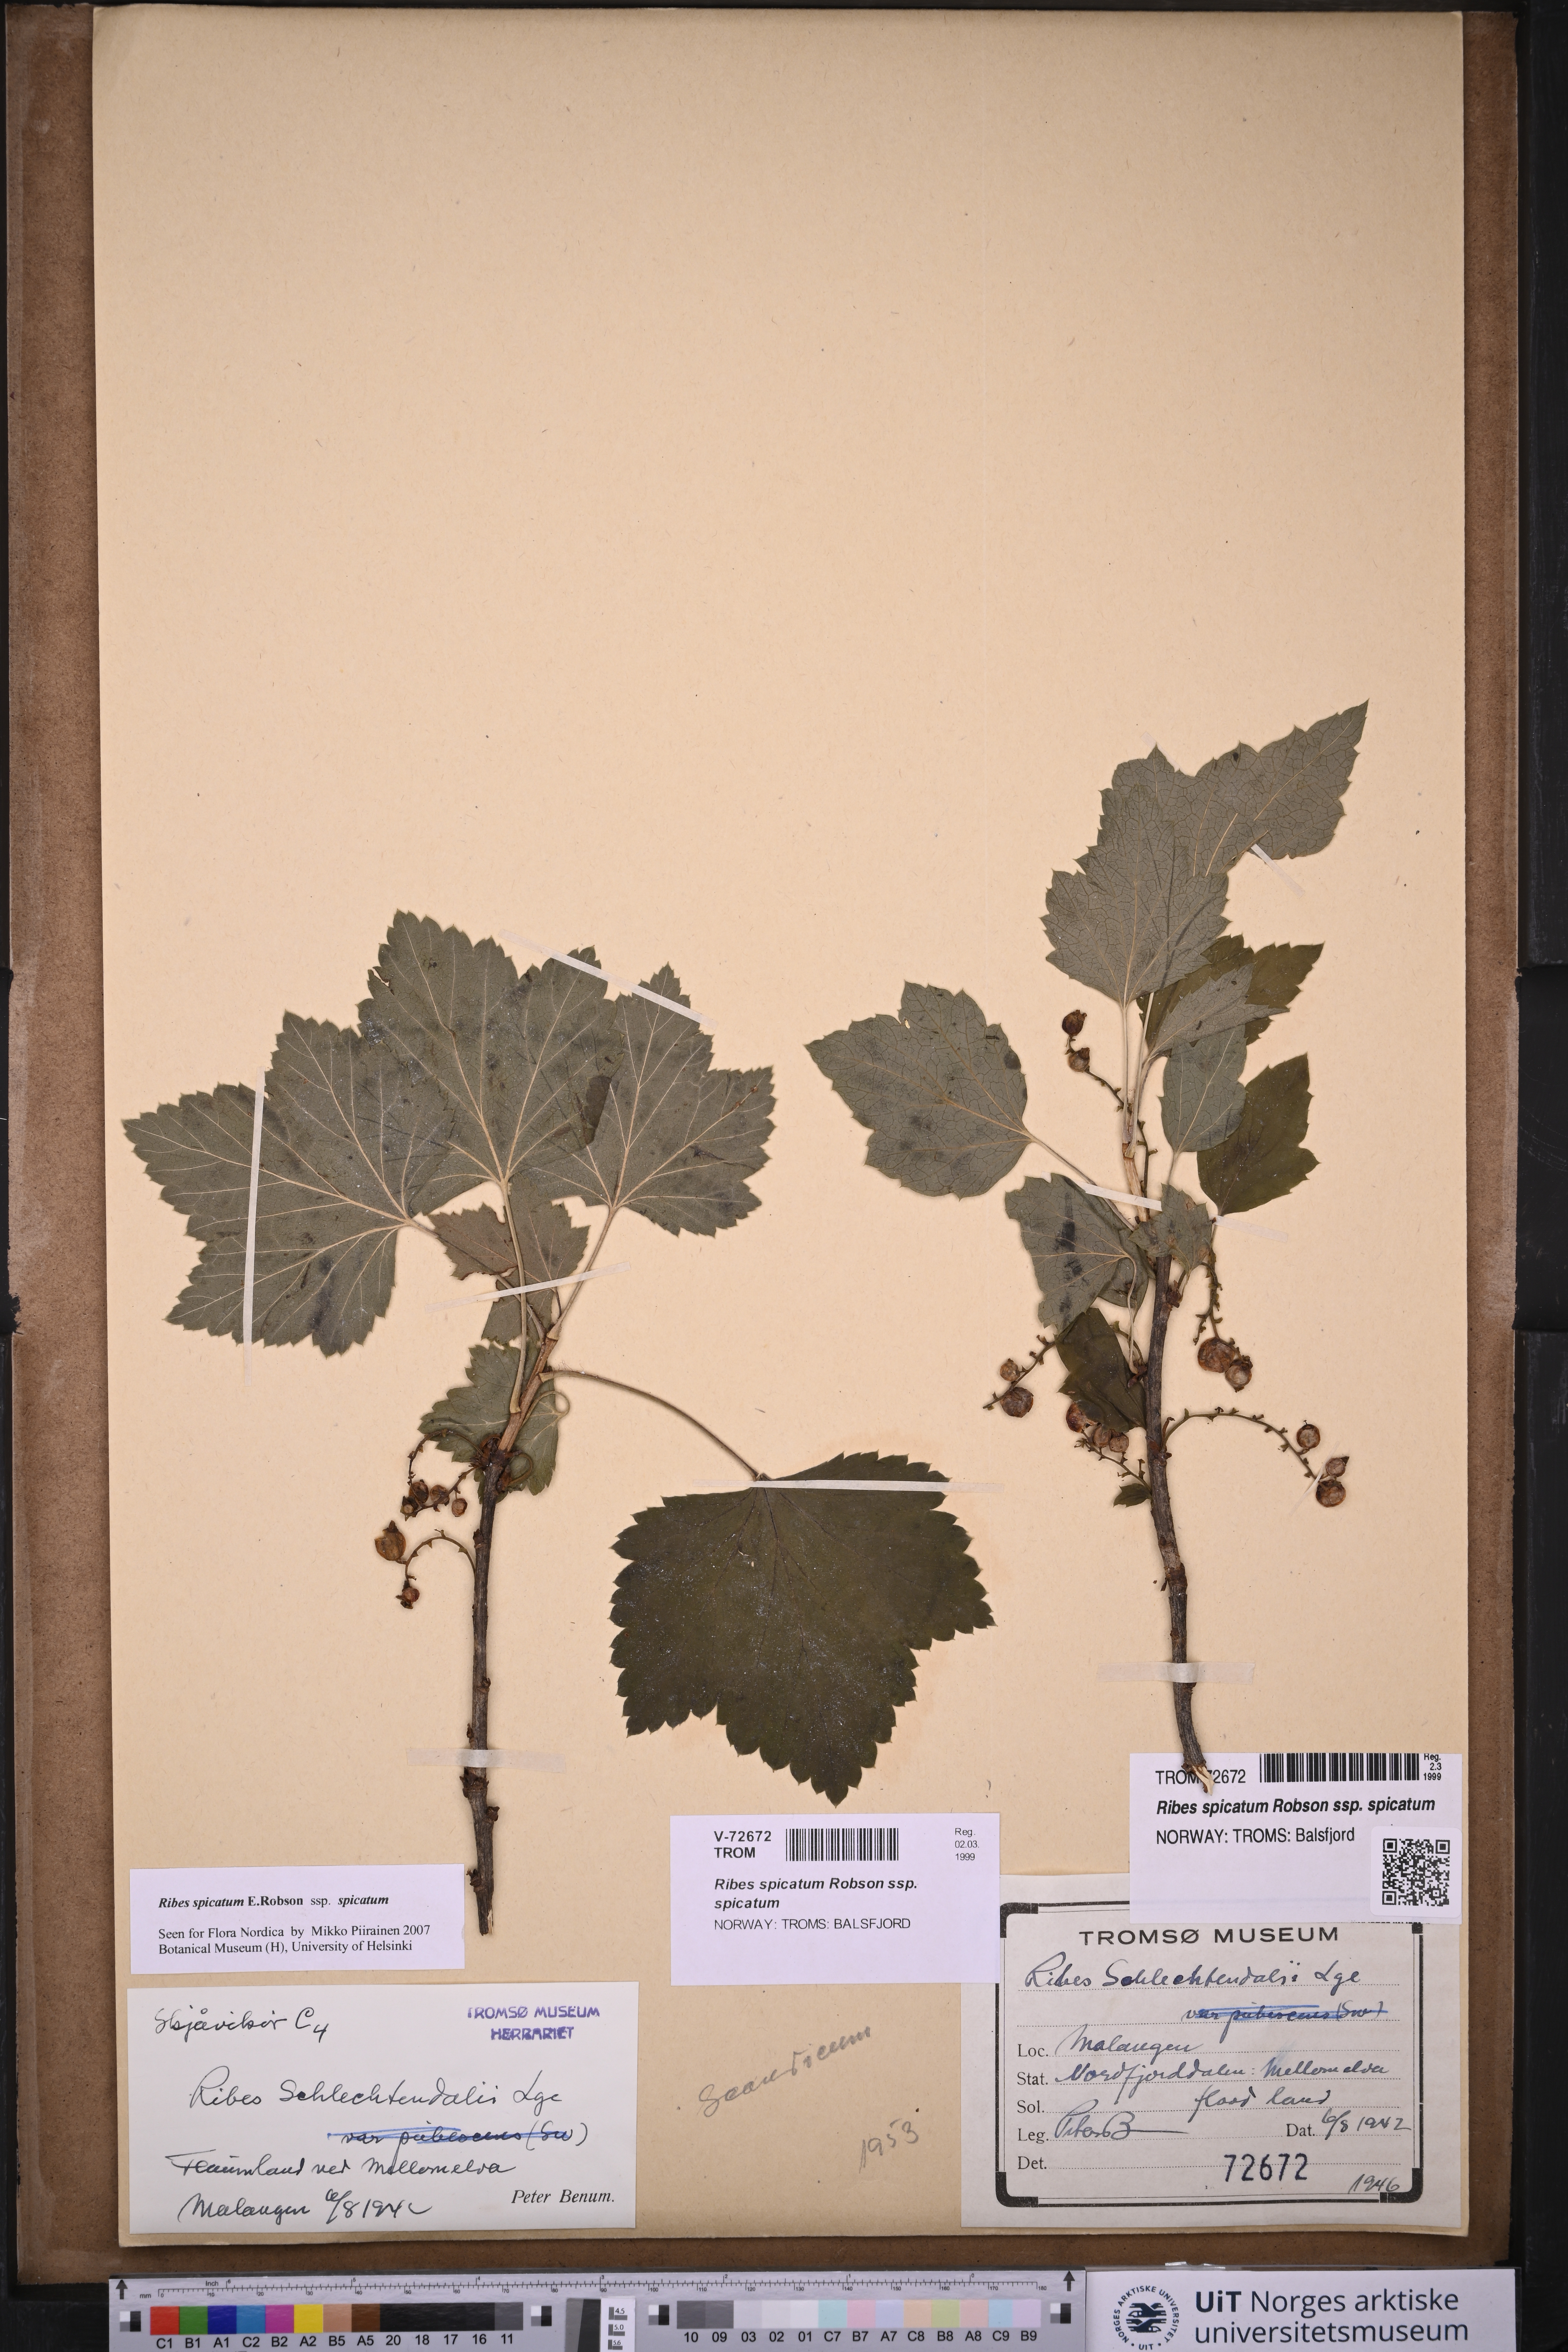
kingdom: Plantae
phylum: Tracheophyta
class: Magnoliopsida
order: Saxifragales
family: Grossulariaceae
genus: Ribes
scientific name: Ribes spicatum
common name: Downy currant
